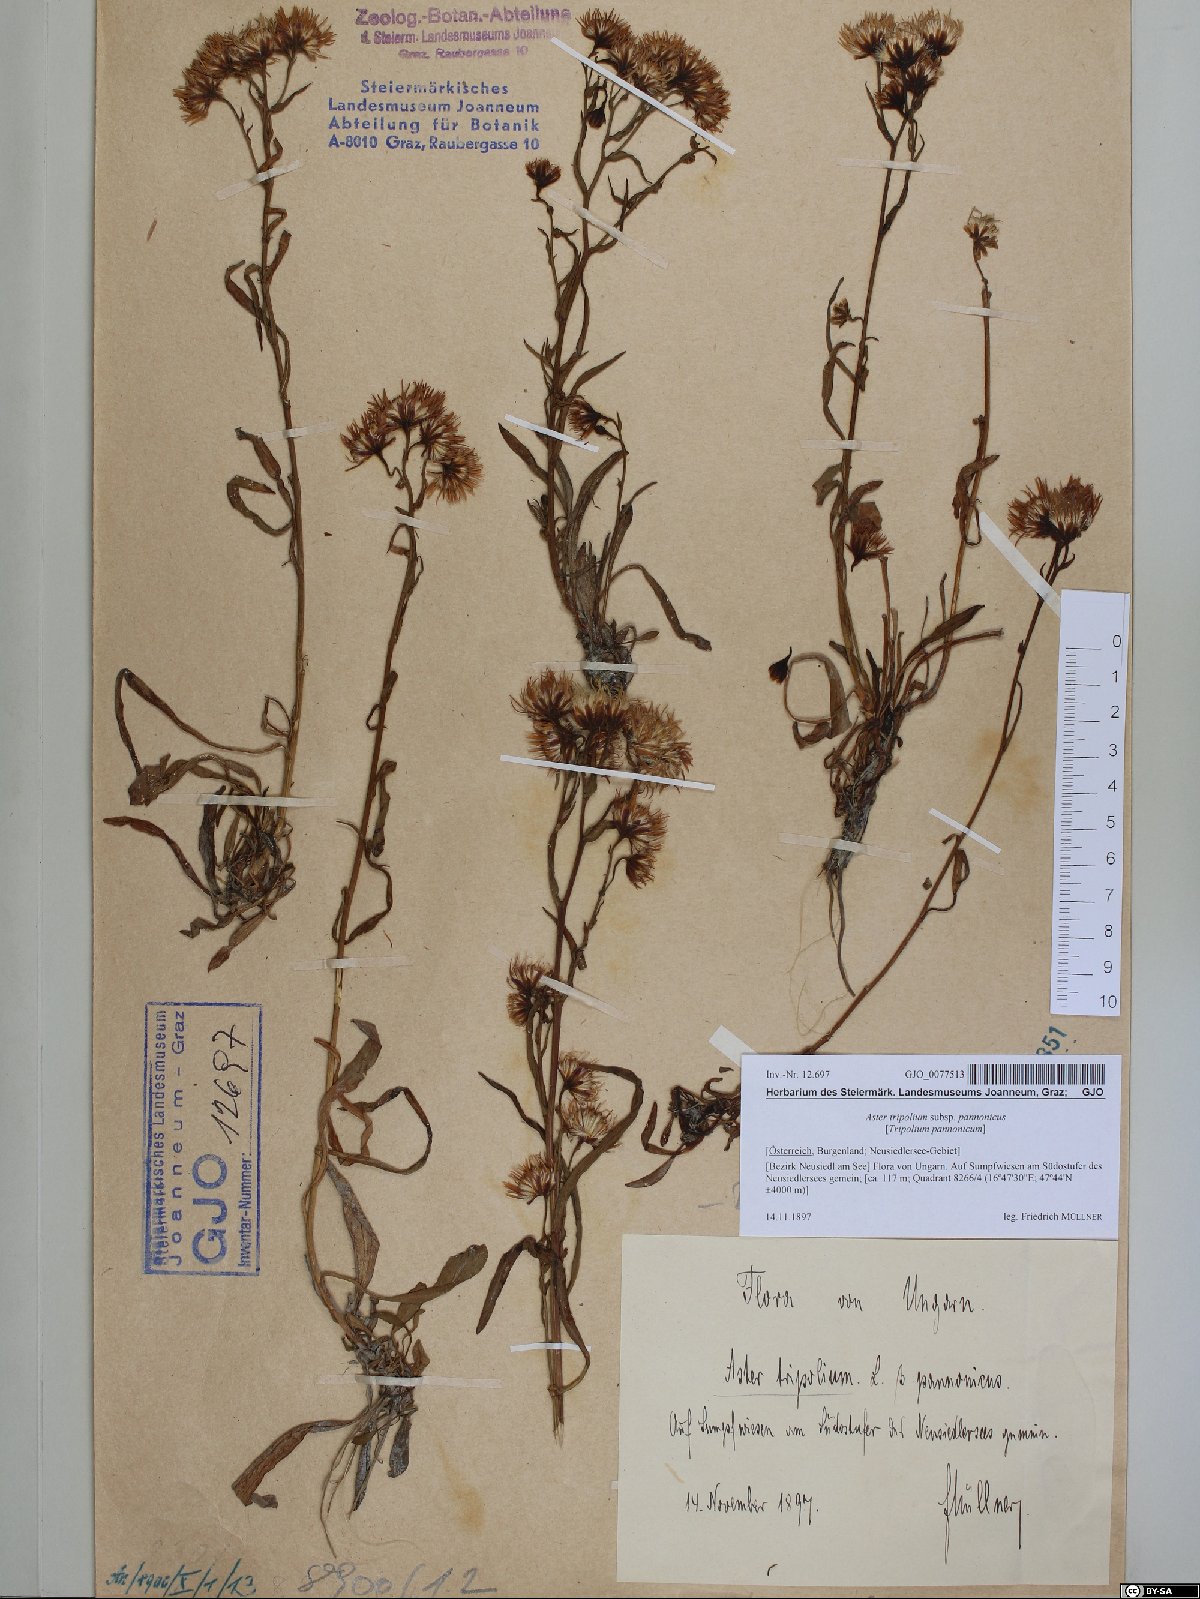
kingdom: Plantae
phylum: Tracheophyta
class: Magnoliopsida
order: Asterales
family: Asteraceae
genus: Tripolium
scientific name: Tripolium pannonicum
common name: Sea aster
